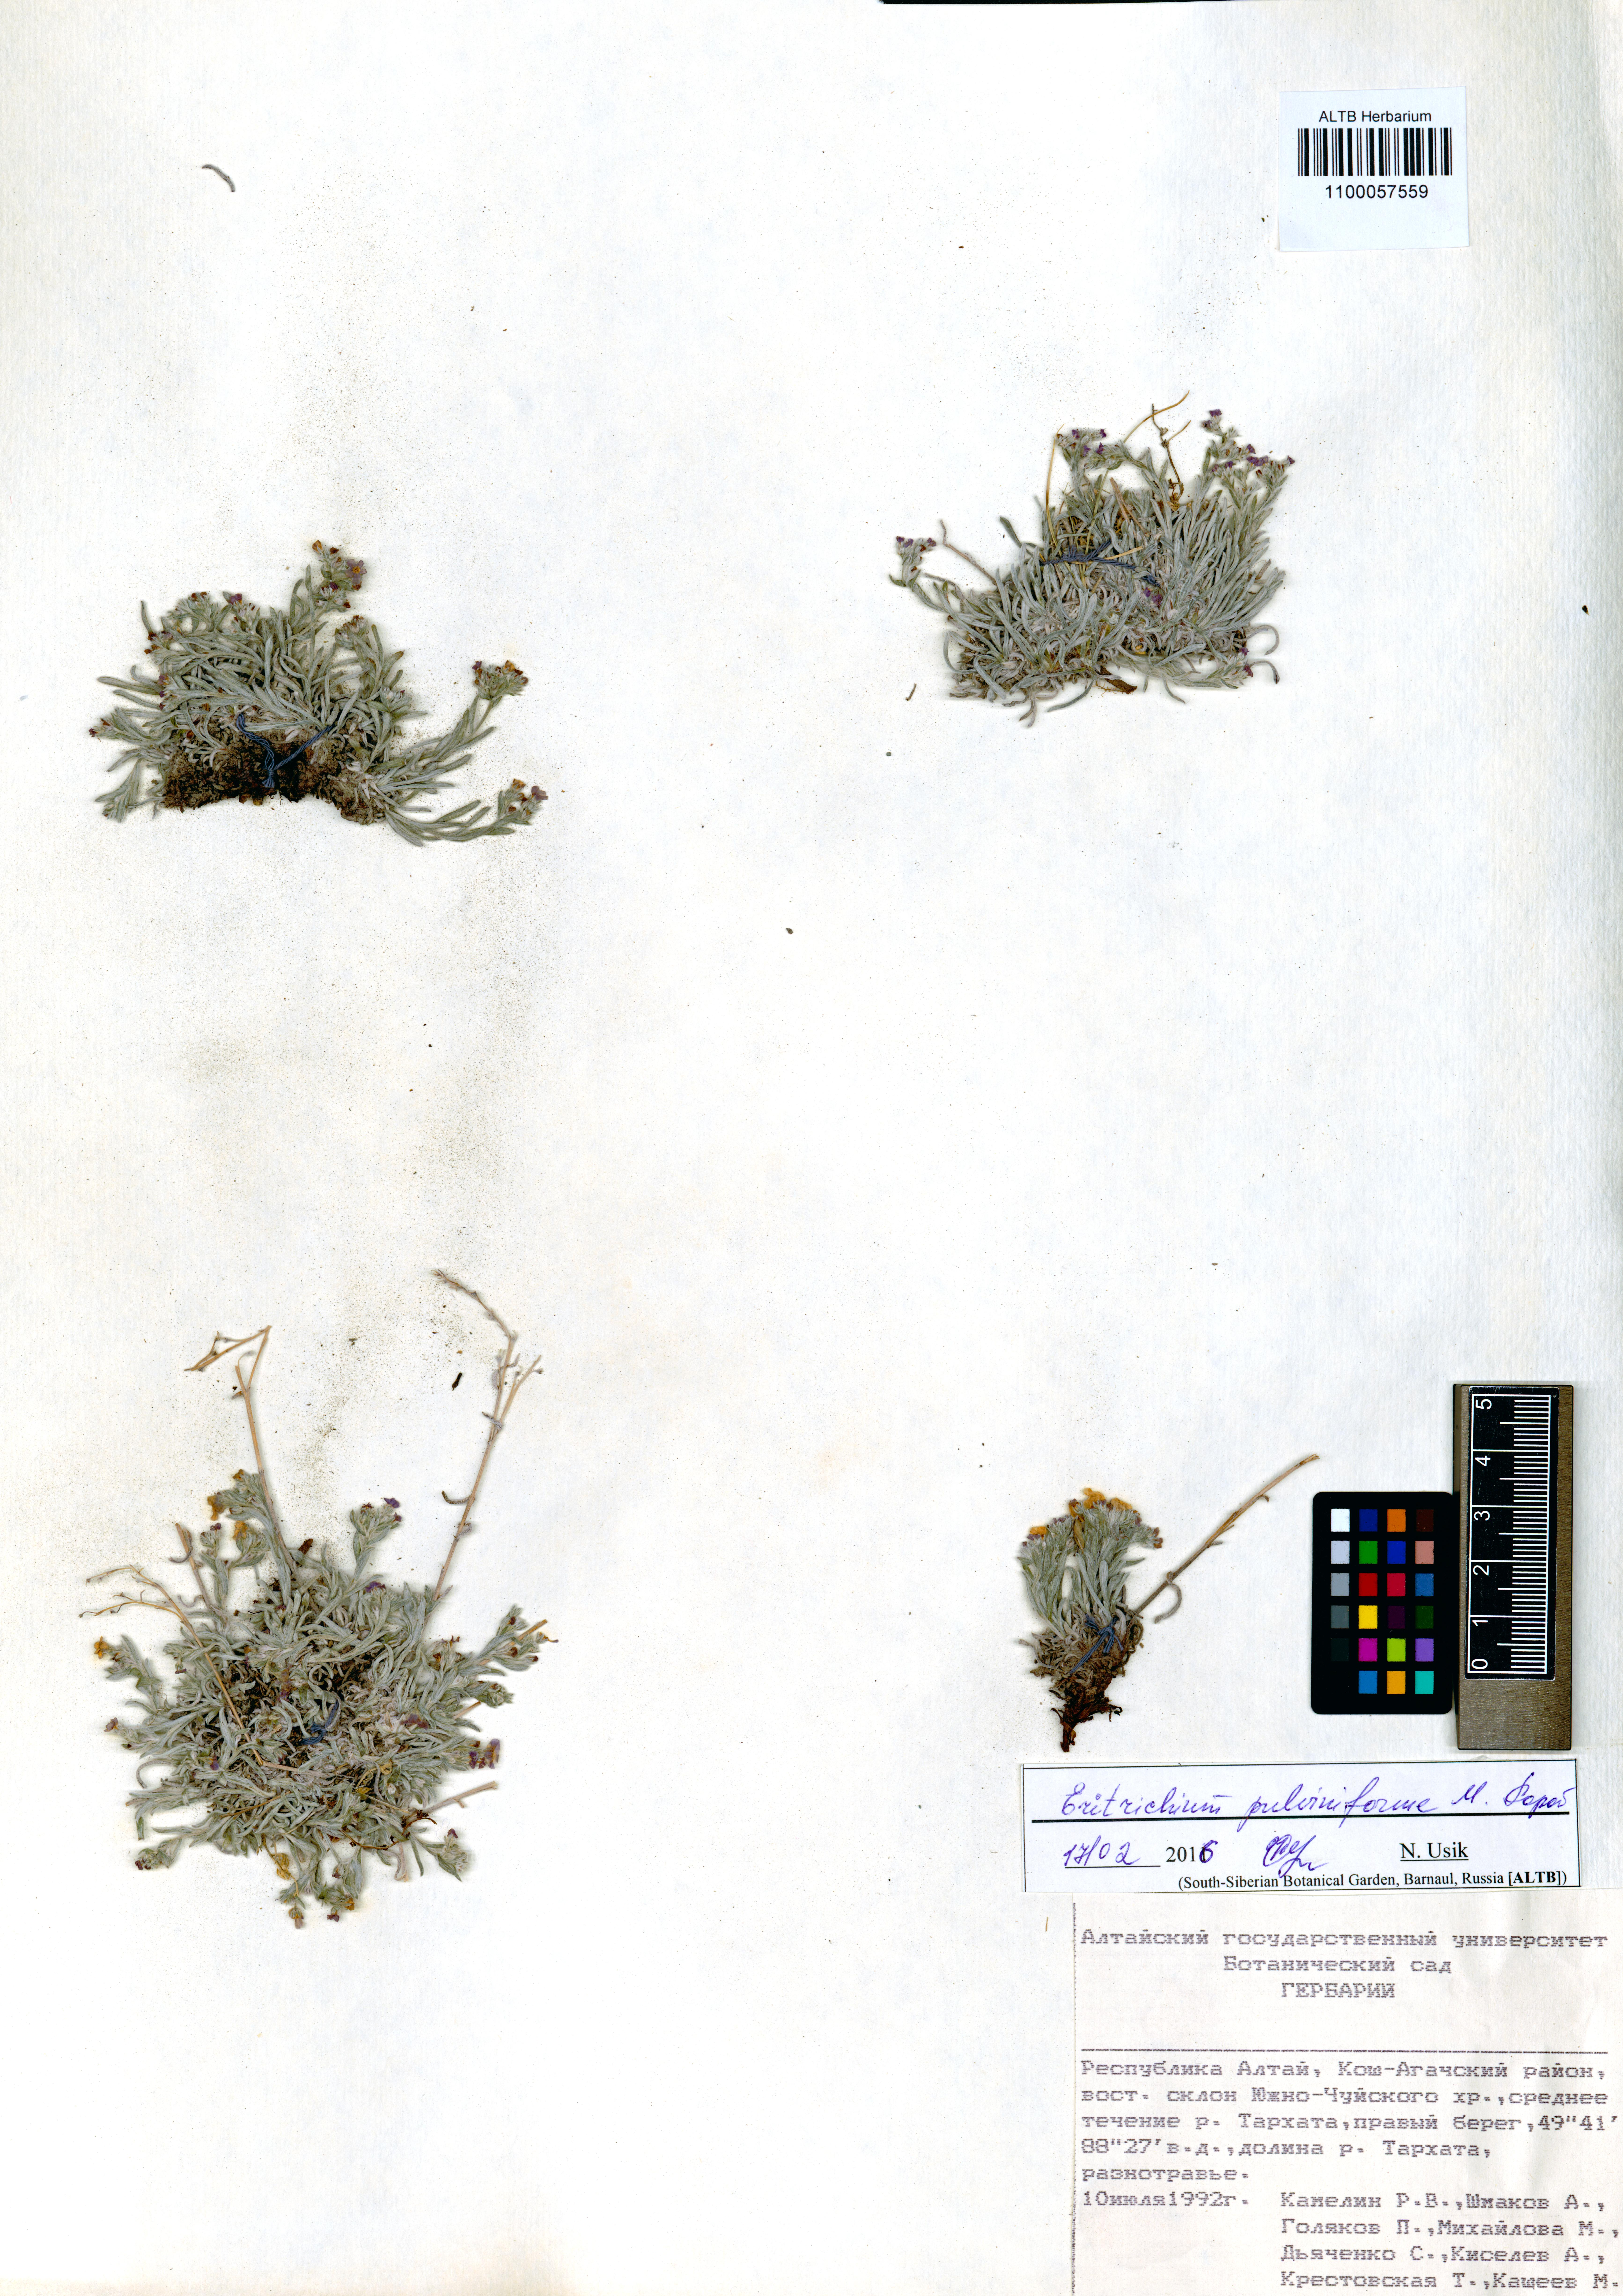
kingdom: Plantae
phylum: Tracheophyta
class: Magnoliopsida
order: Boraginales
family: Boraginaceae
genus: Eritrichium
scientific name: Eritrichium pauciflorum
